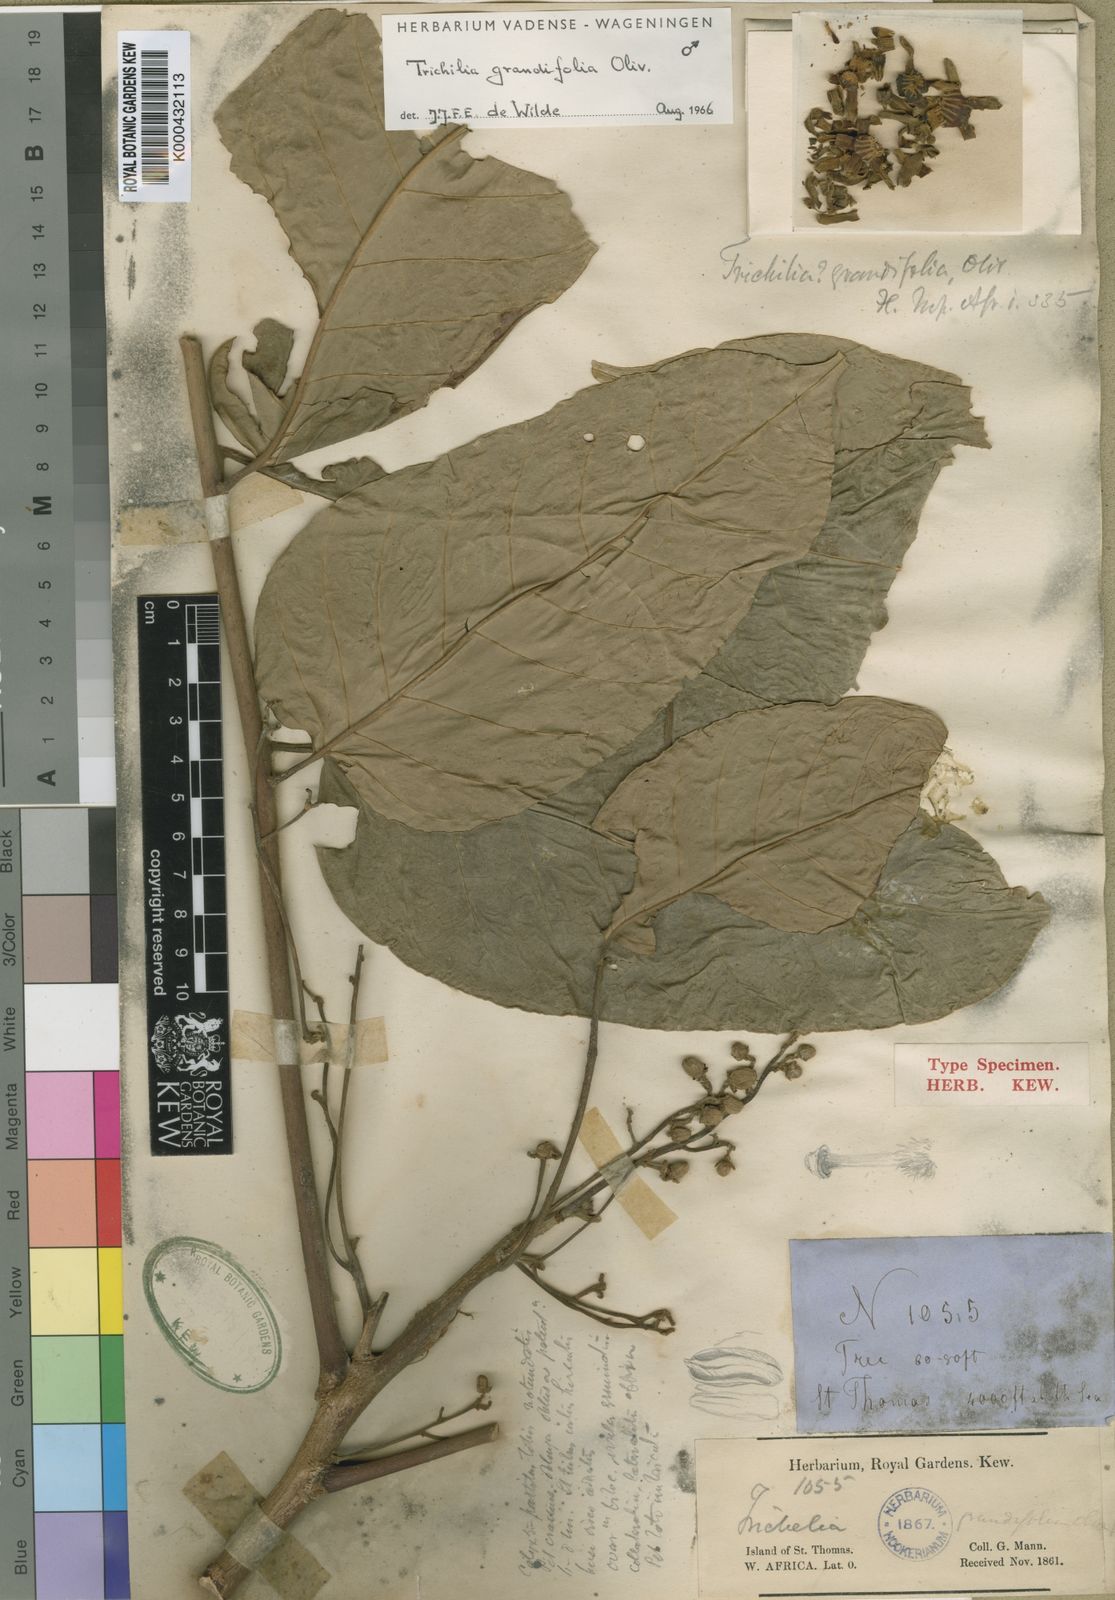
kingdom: Plantae
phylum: Tracheophyta
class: Magnoliopsida
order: Sapindales
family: Meliaceae
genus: Trichilia
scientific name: Trichilia grandifolia
